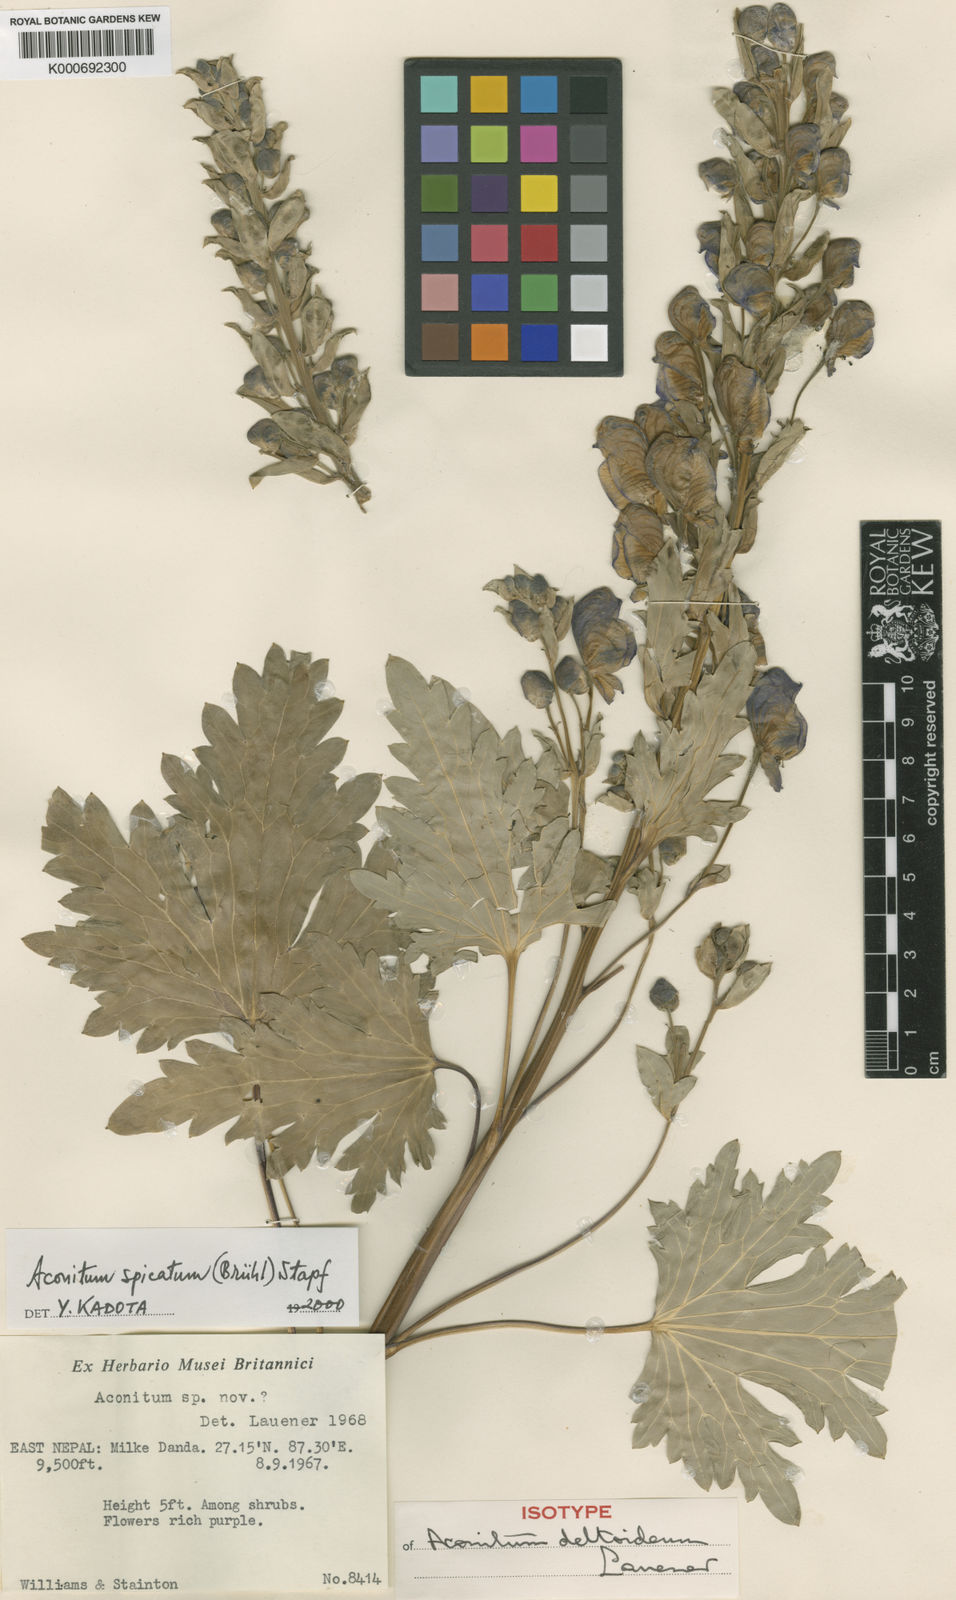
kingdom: Plantae
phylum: Tracheophyta
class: Magnoliopsida
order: Ranunculales
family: Ranunculaceae
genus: Aconitum
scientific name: Aconitum
